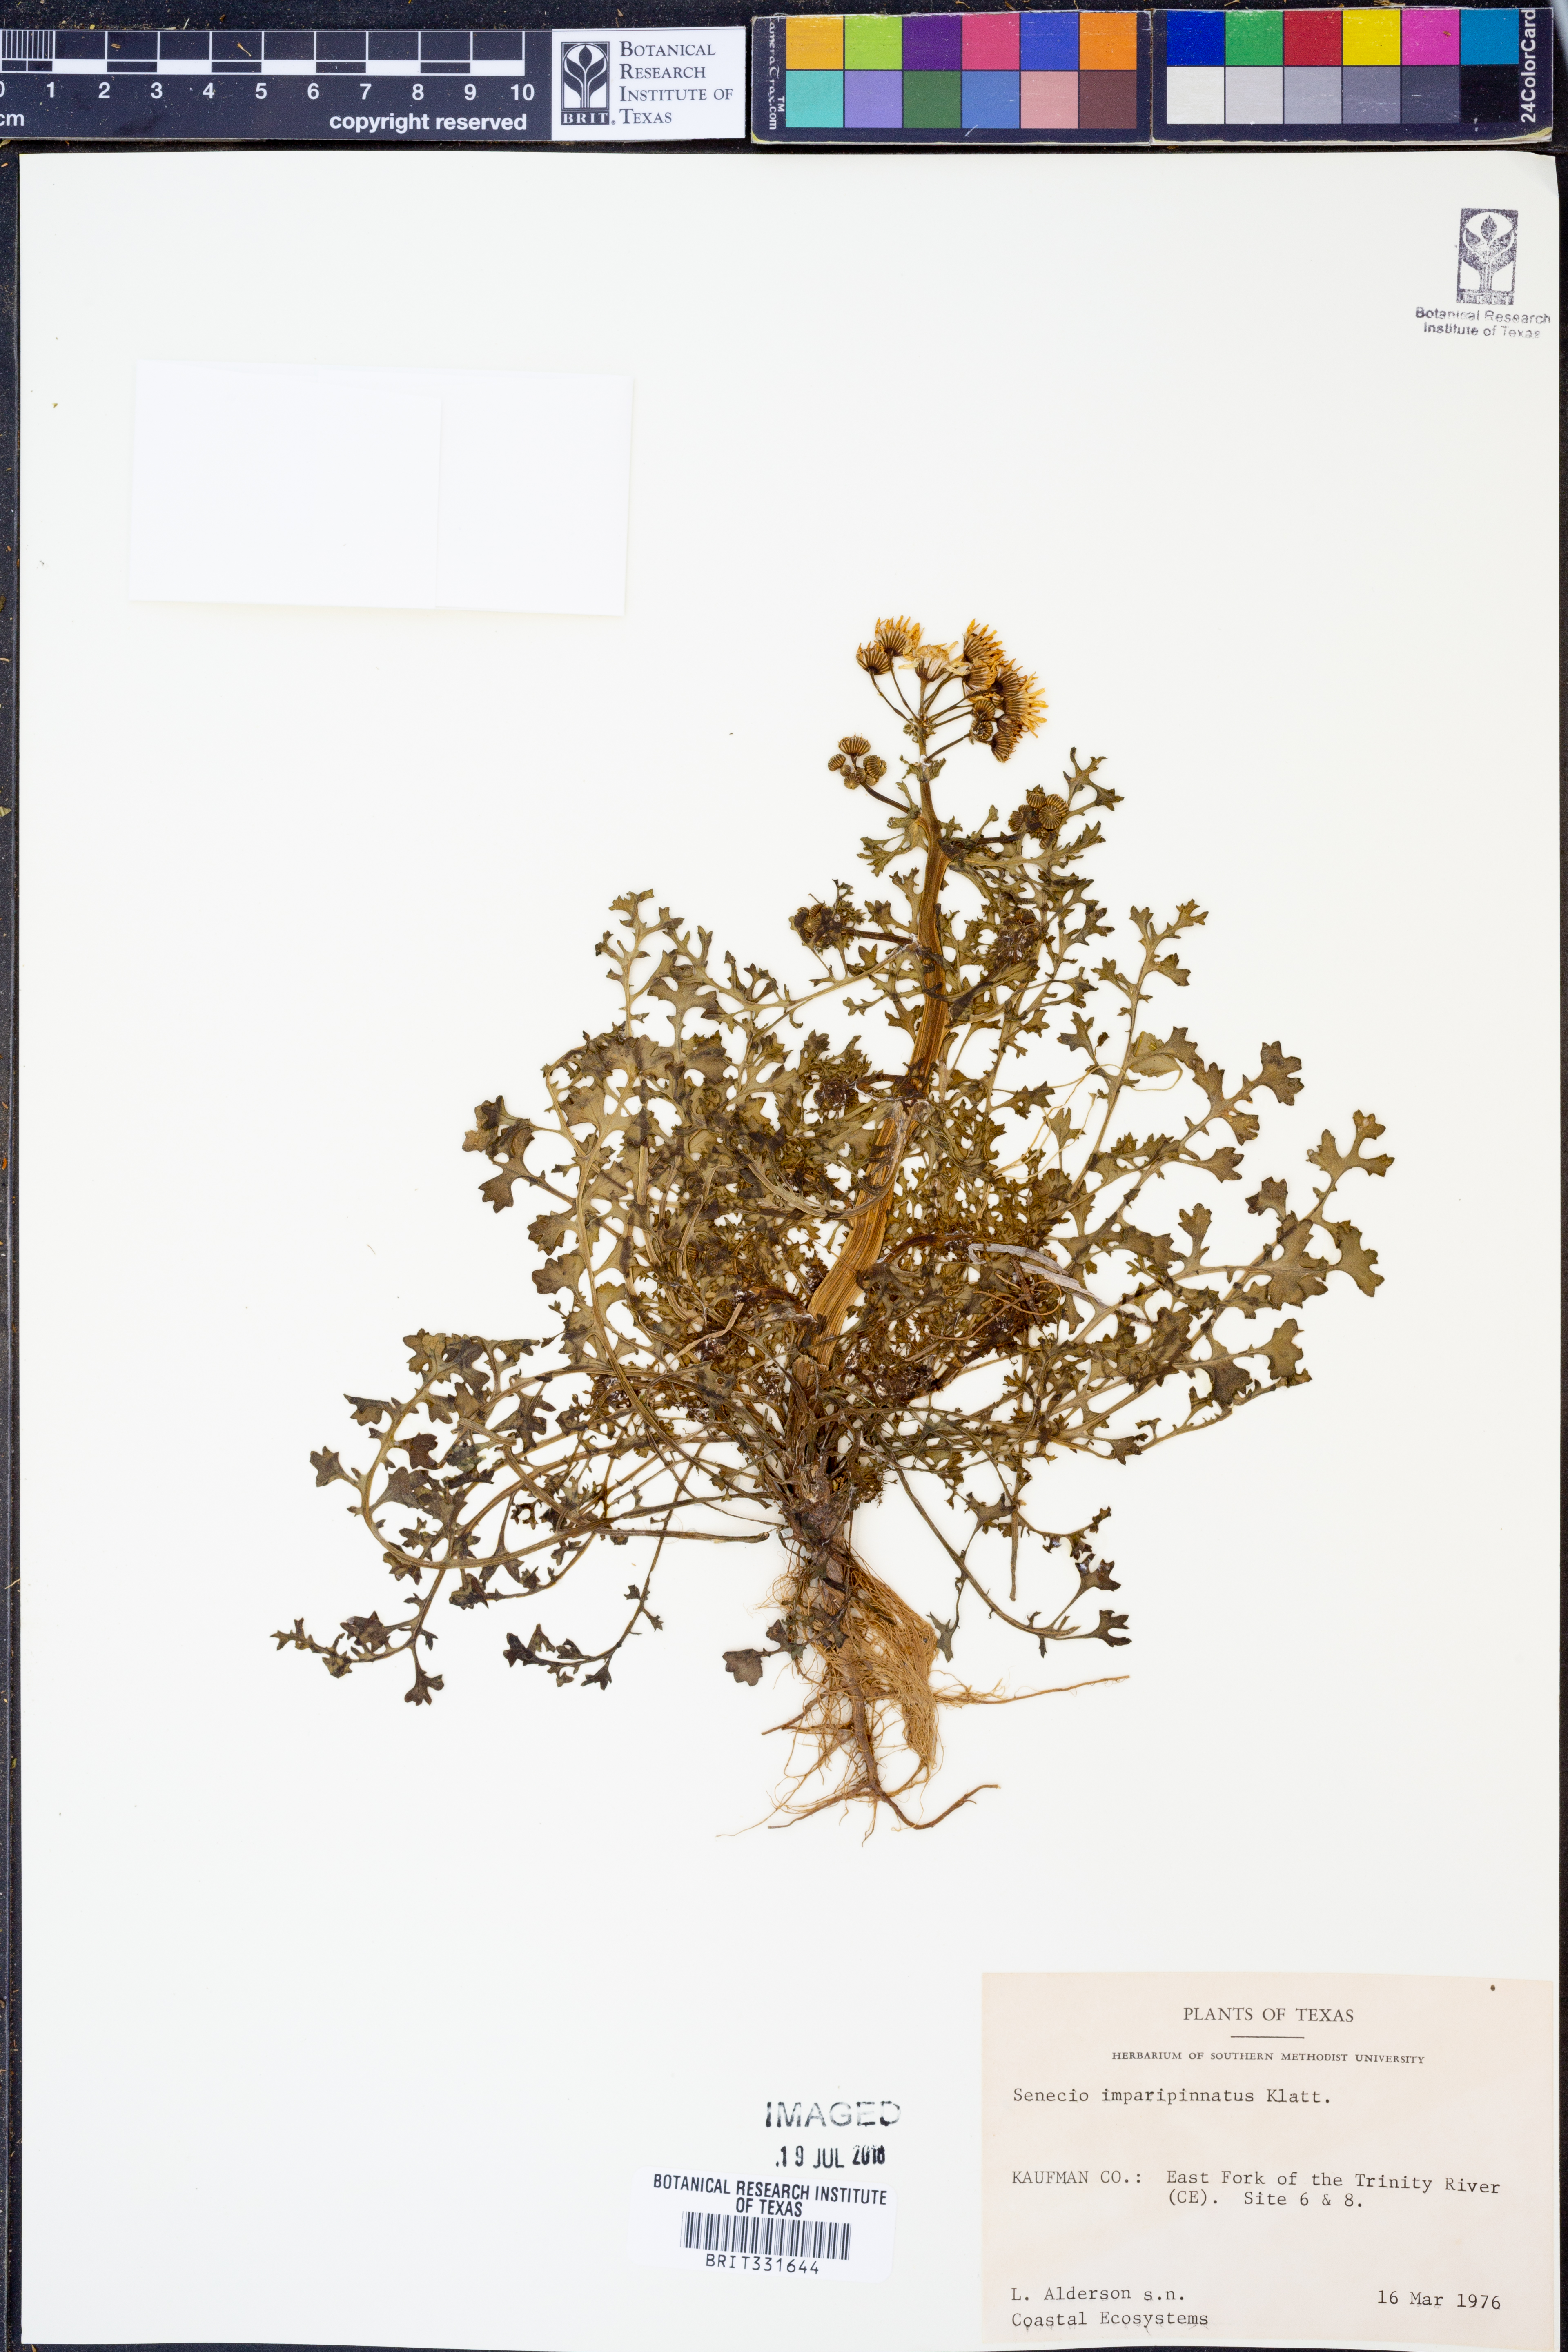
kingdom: Plantae
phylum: Tracheophyta
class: Magnoliopsida
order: Asterales
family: Asteraceae
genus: Packera
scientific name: Packera tampicana
